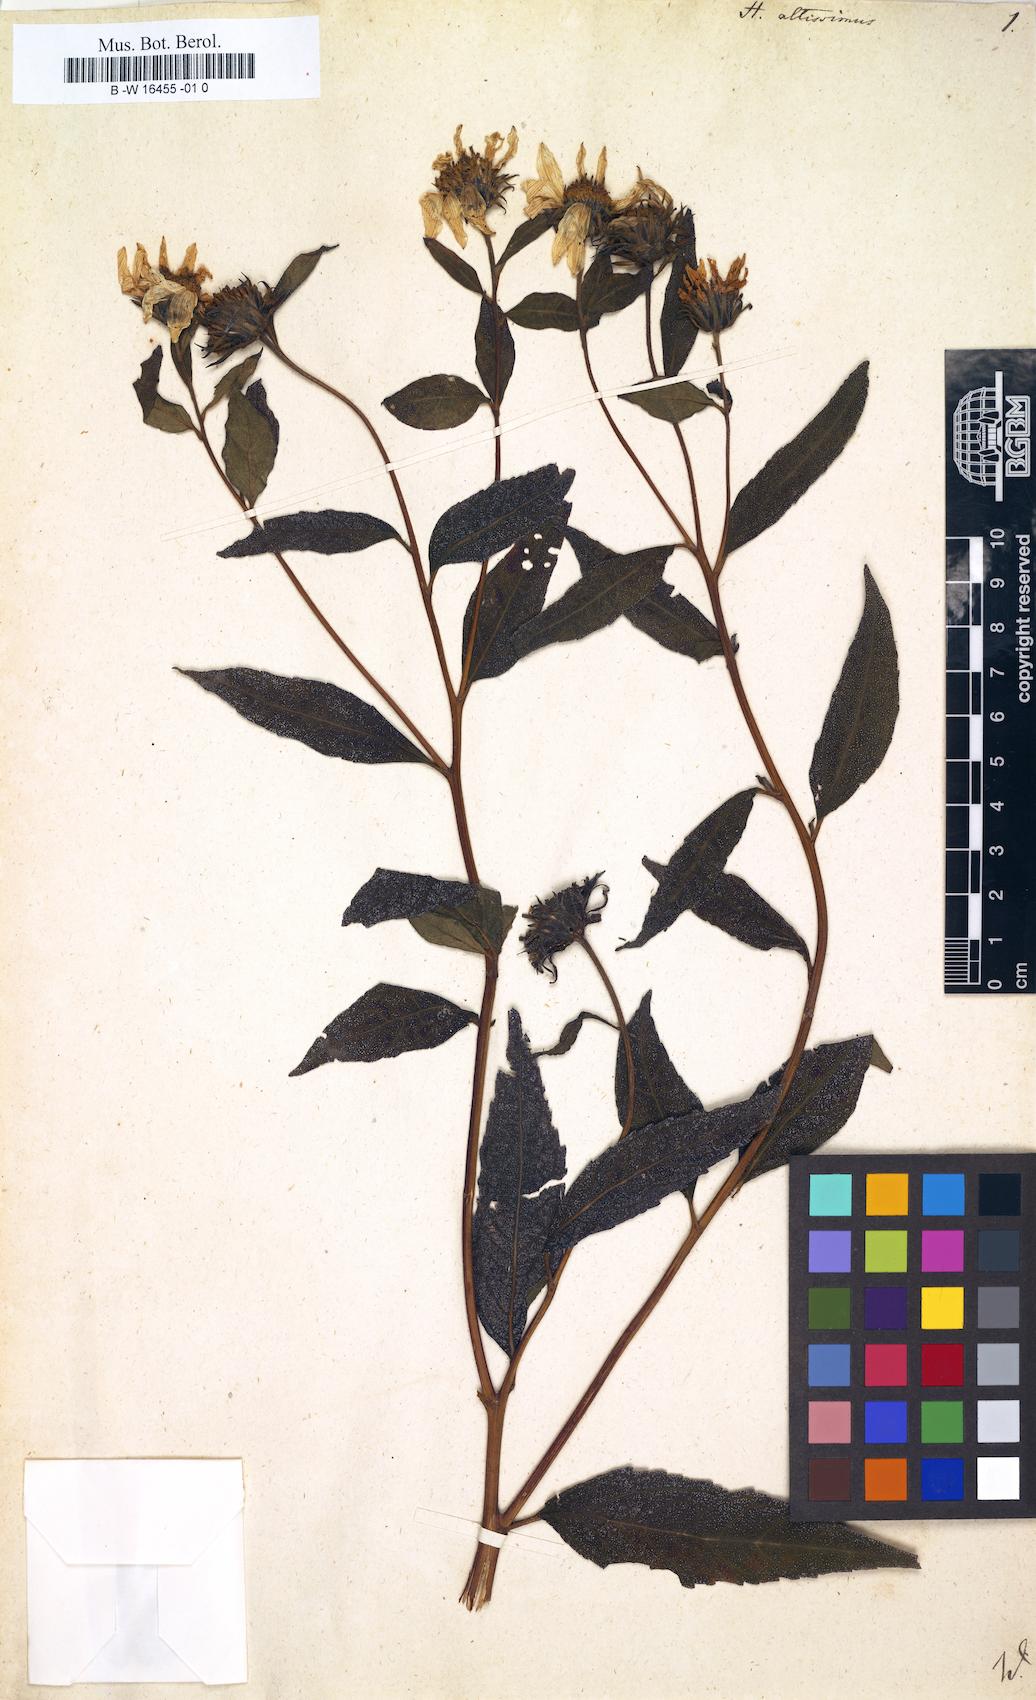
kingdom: Plantae
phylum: Tracheophyta
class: Magnoliopsida
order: Asterales
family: Asteraceae
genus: Helianthus
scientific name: Helianthus
